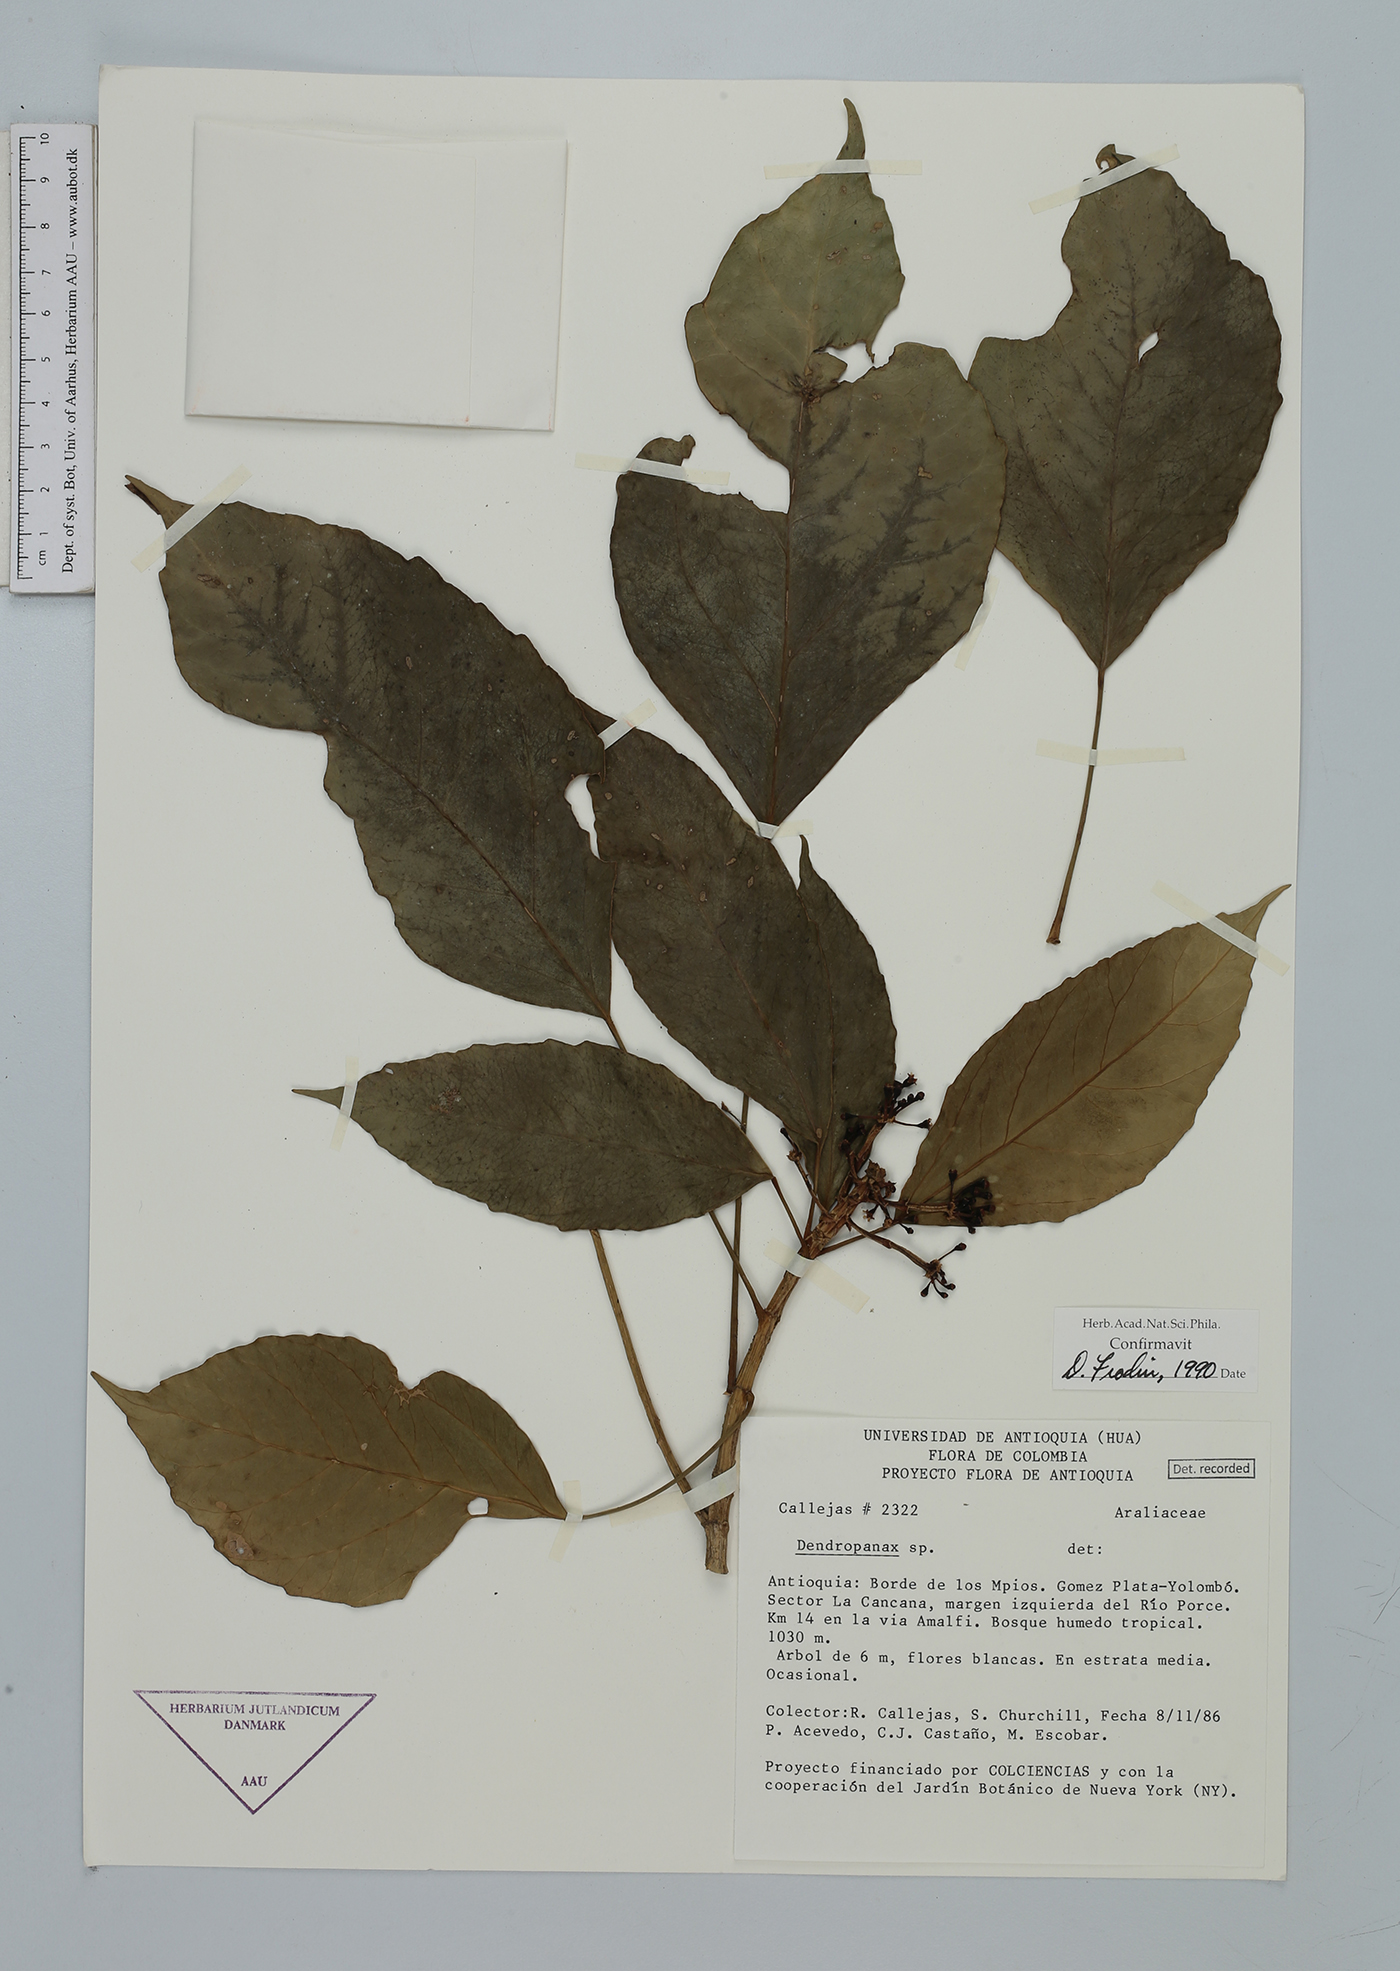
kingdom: Plantae
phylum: Tracheophyta
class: Magnoliopsida
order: Apiales
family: Araliaceae
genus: Dendropanax
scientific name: Dendropanax
